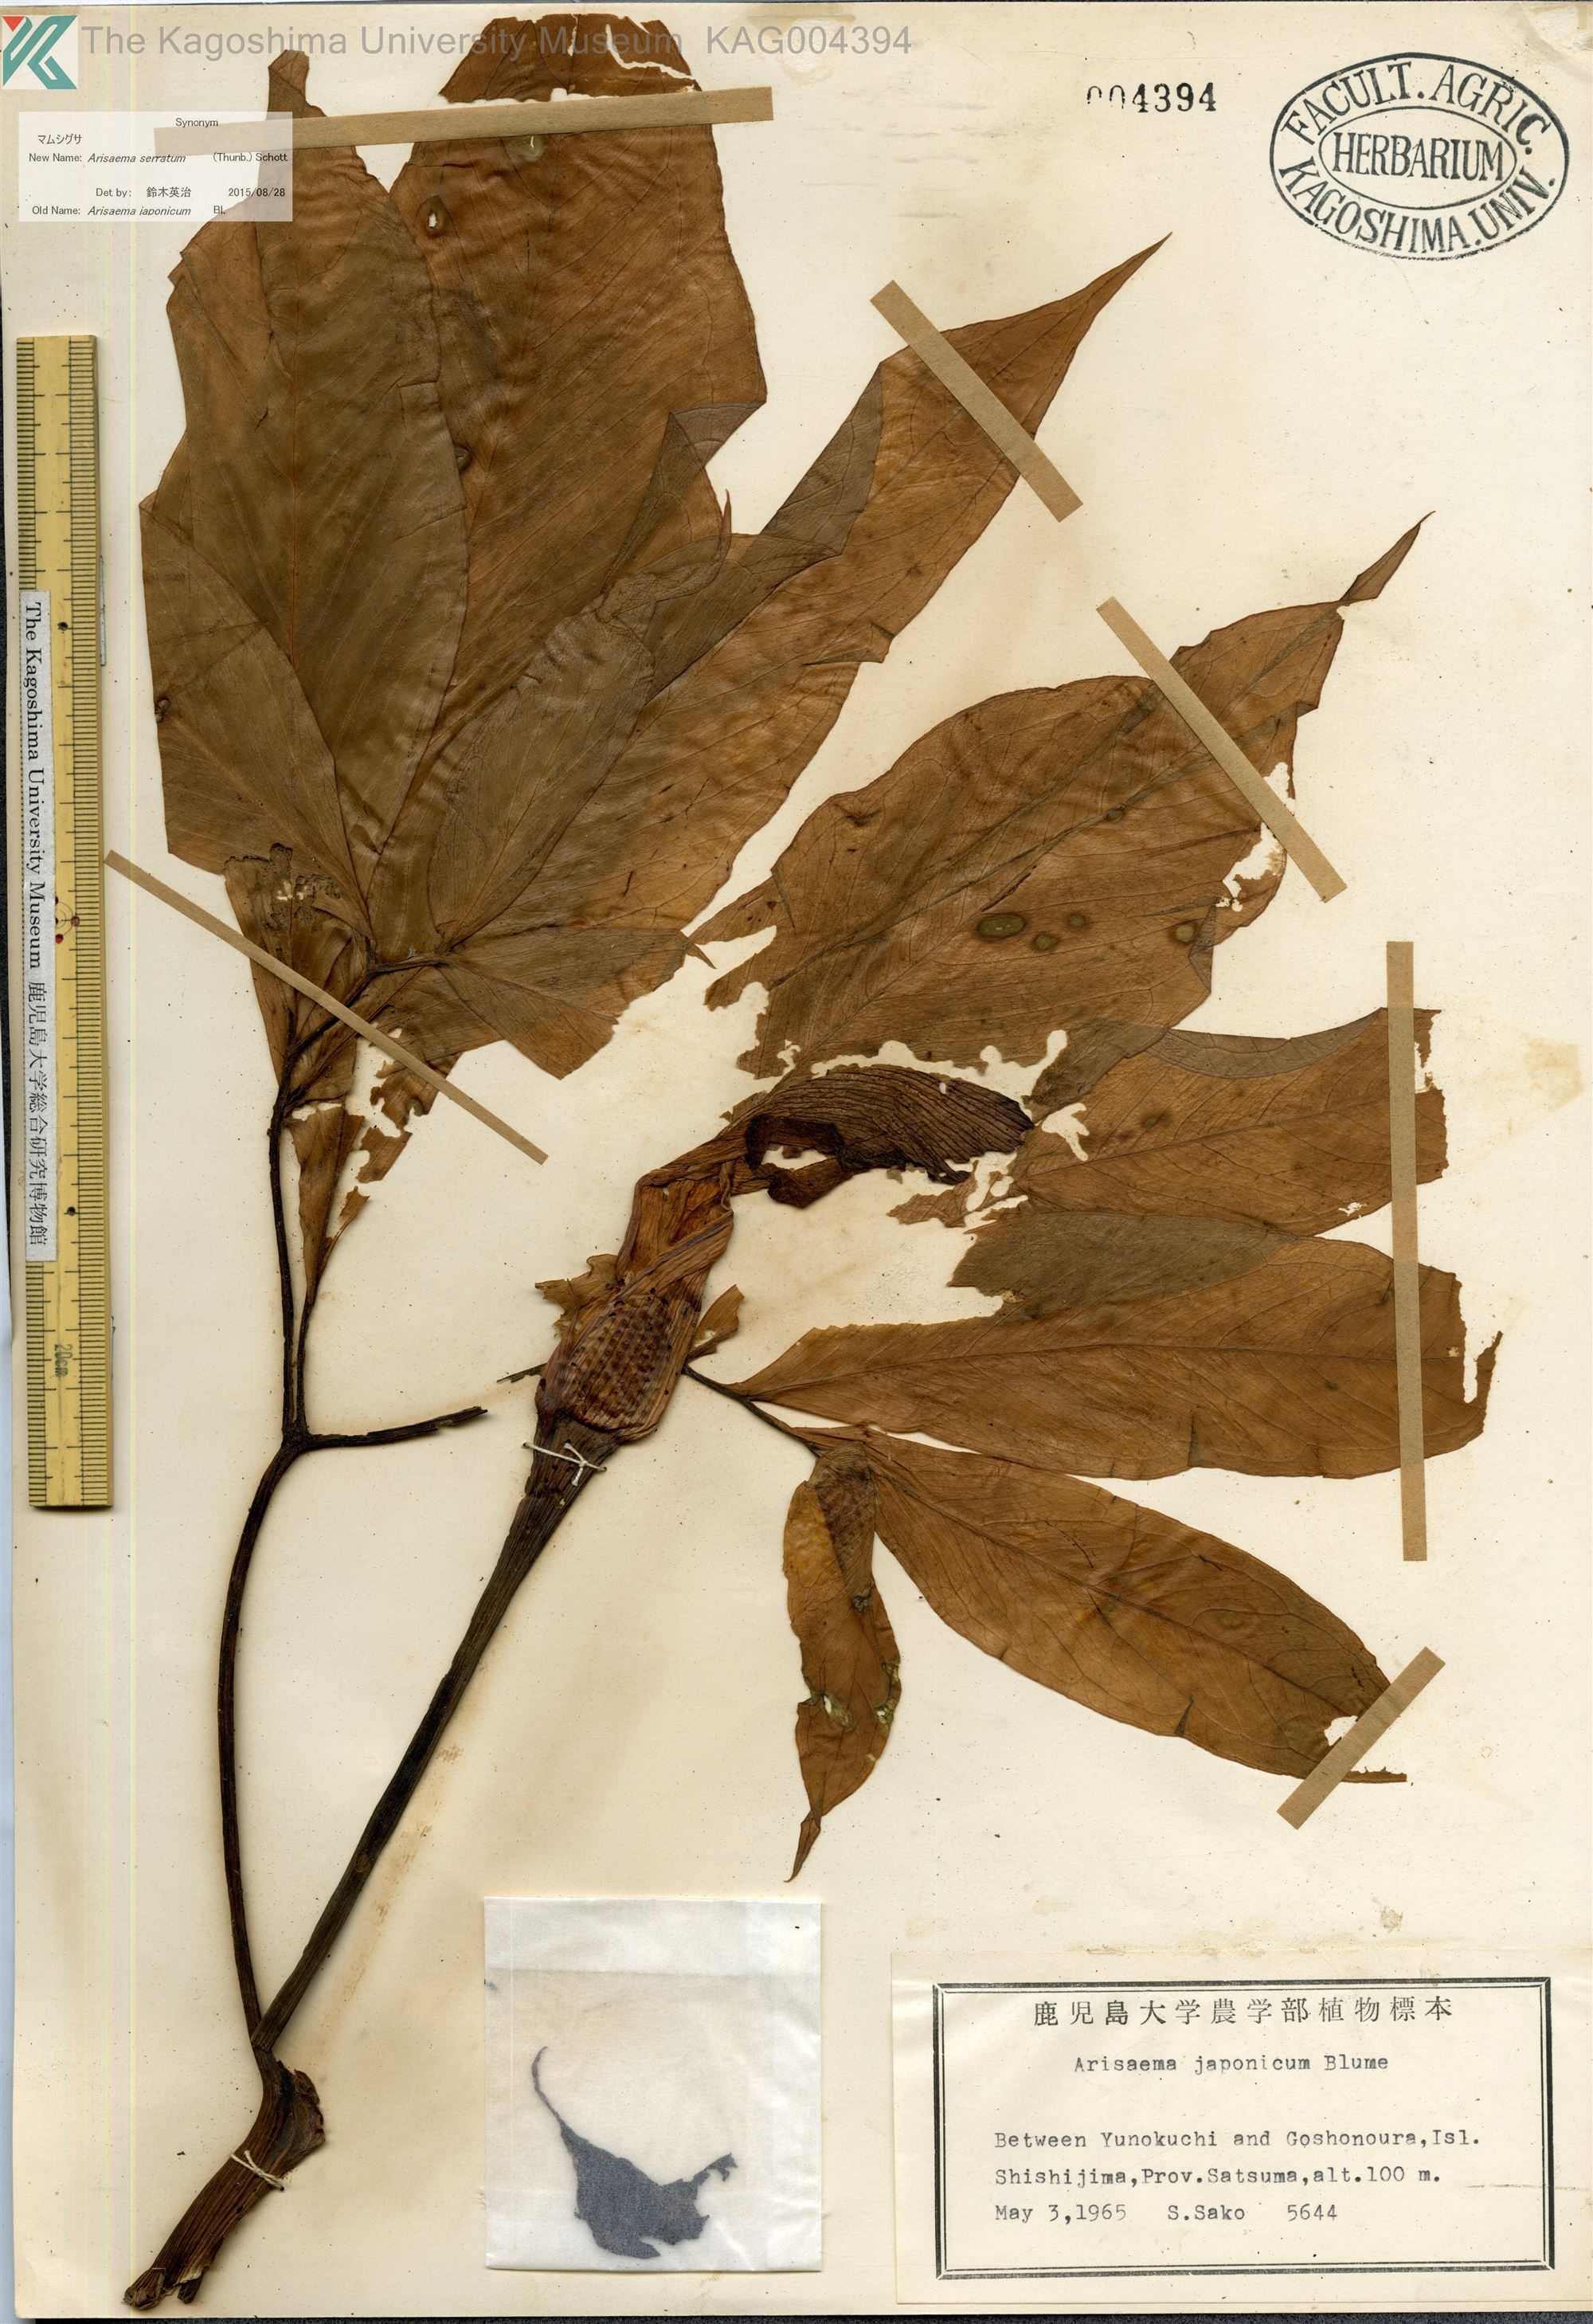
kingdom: Plantae
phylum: Tracheophyta
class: Liliopsida
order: Alismatales
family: Araceae
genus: Arisaema
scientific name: Arisaema serratum
